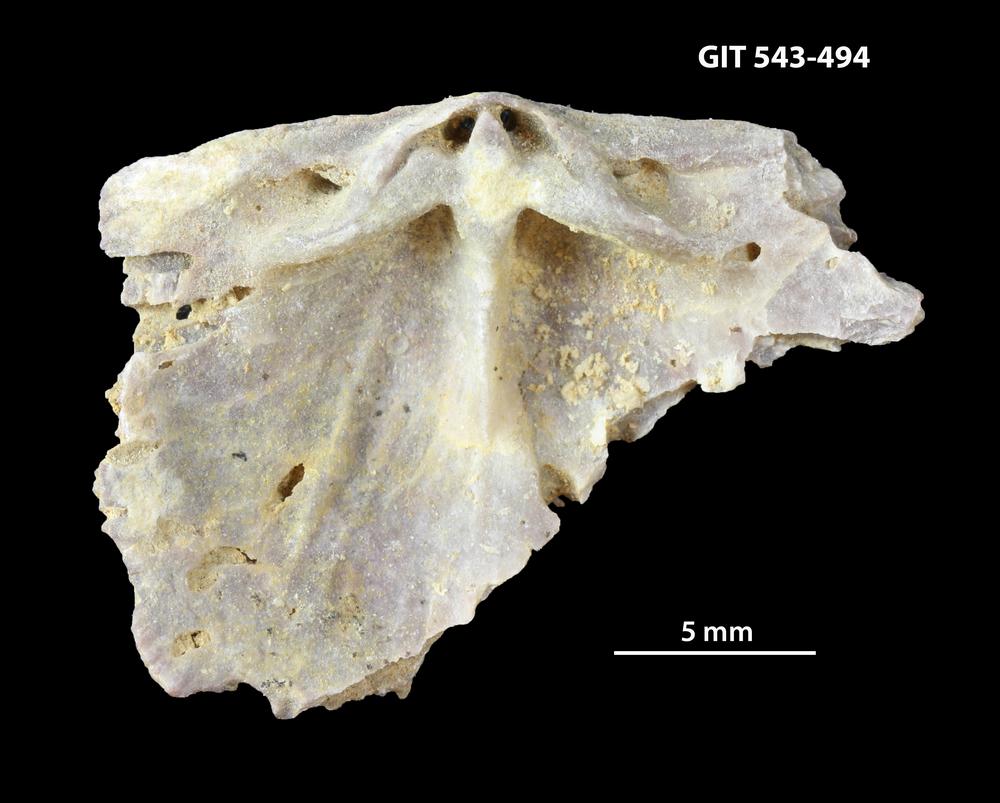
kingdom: Animalia
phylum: Brachiopoda
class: Rhynchonellata
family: Clitambonitidae
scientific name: Clitambonitidae
